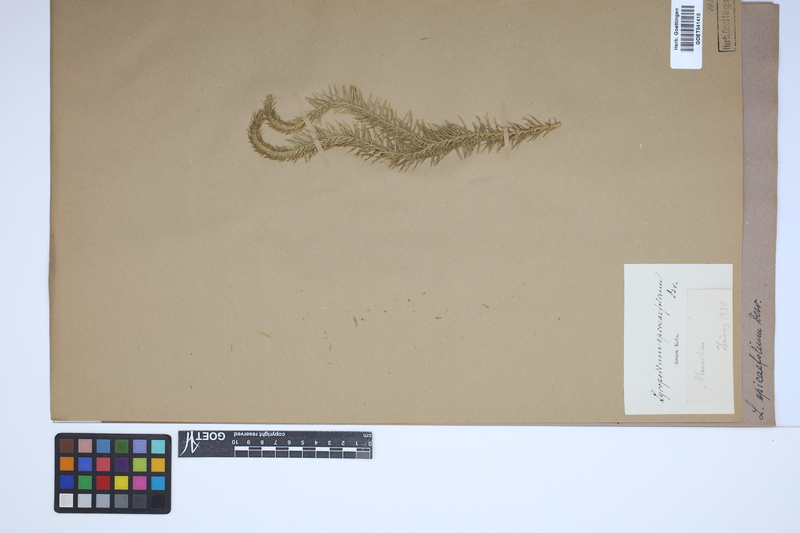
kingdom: Plantae
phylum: Tracheophyta
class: Lycopodiopsida
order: Lycopodiales
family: Lycopodiaceae
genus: Phlegmariurus
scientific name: Phlegmariurus squarrosus
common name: Rock tassel-fern
